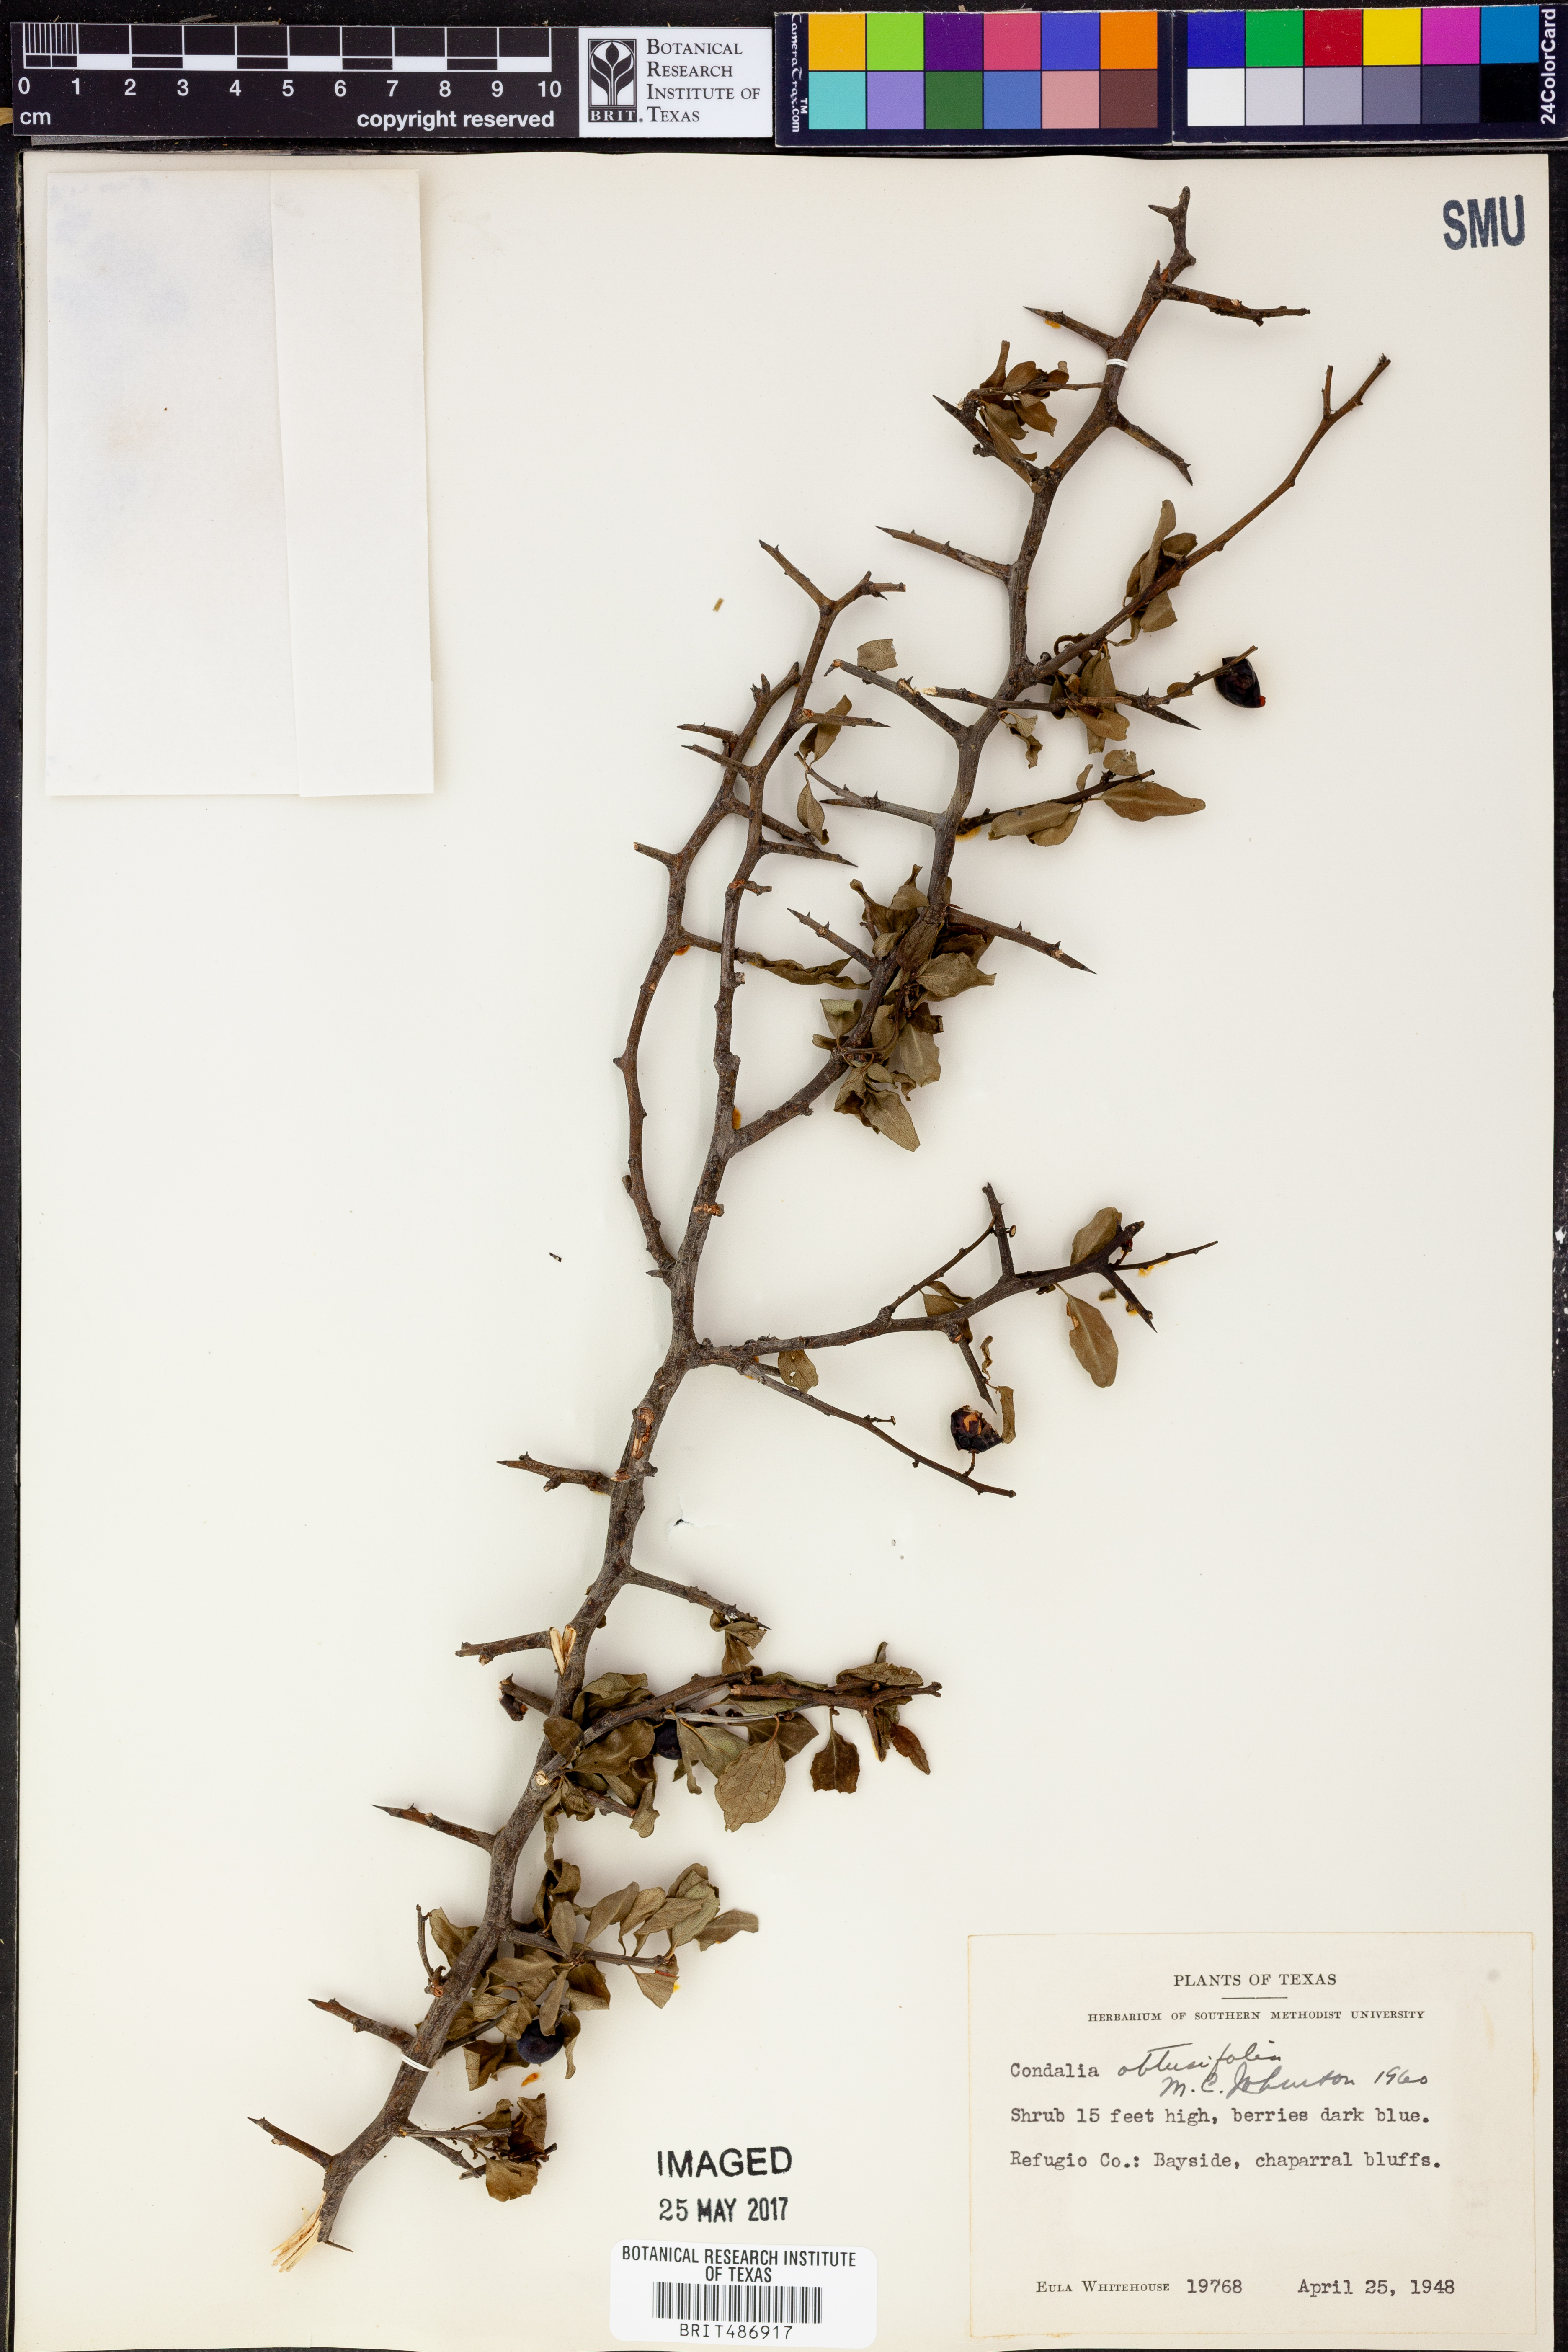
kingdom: Plantae
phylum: Tracheophyta
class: Magnoliopsida
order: Rosales
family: Rhamnaceae
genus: Sarcomphalus
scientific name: Sarcomphalus obtusifolius
